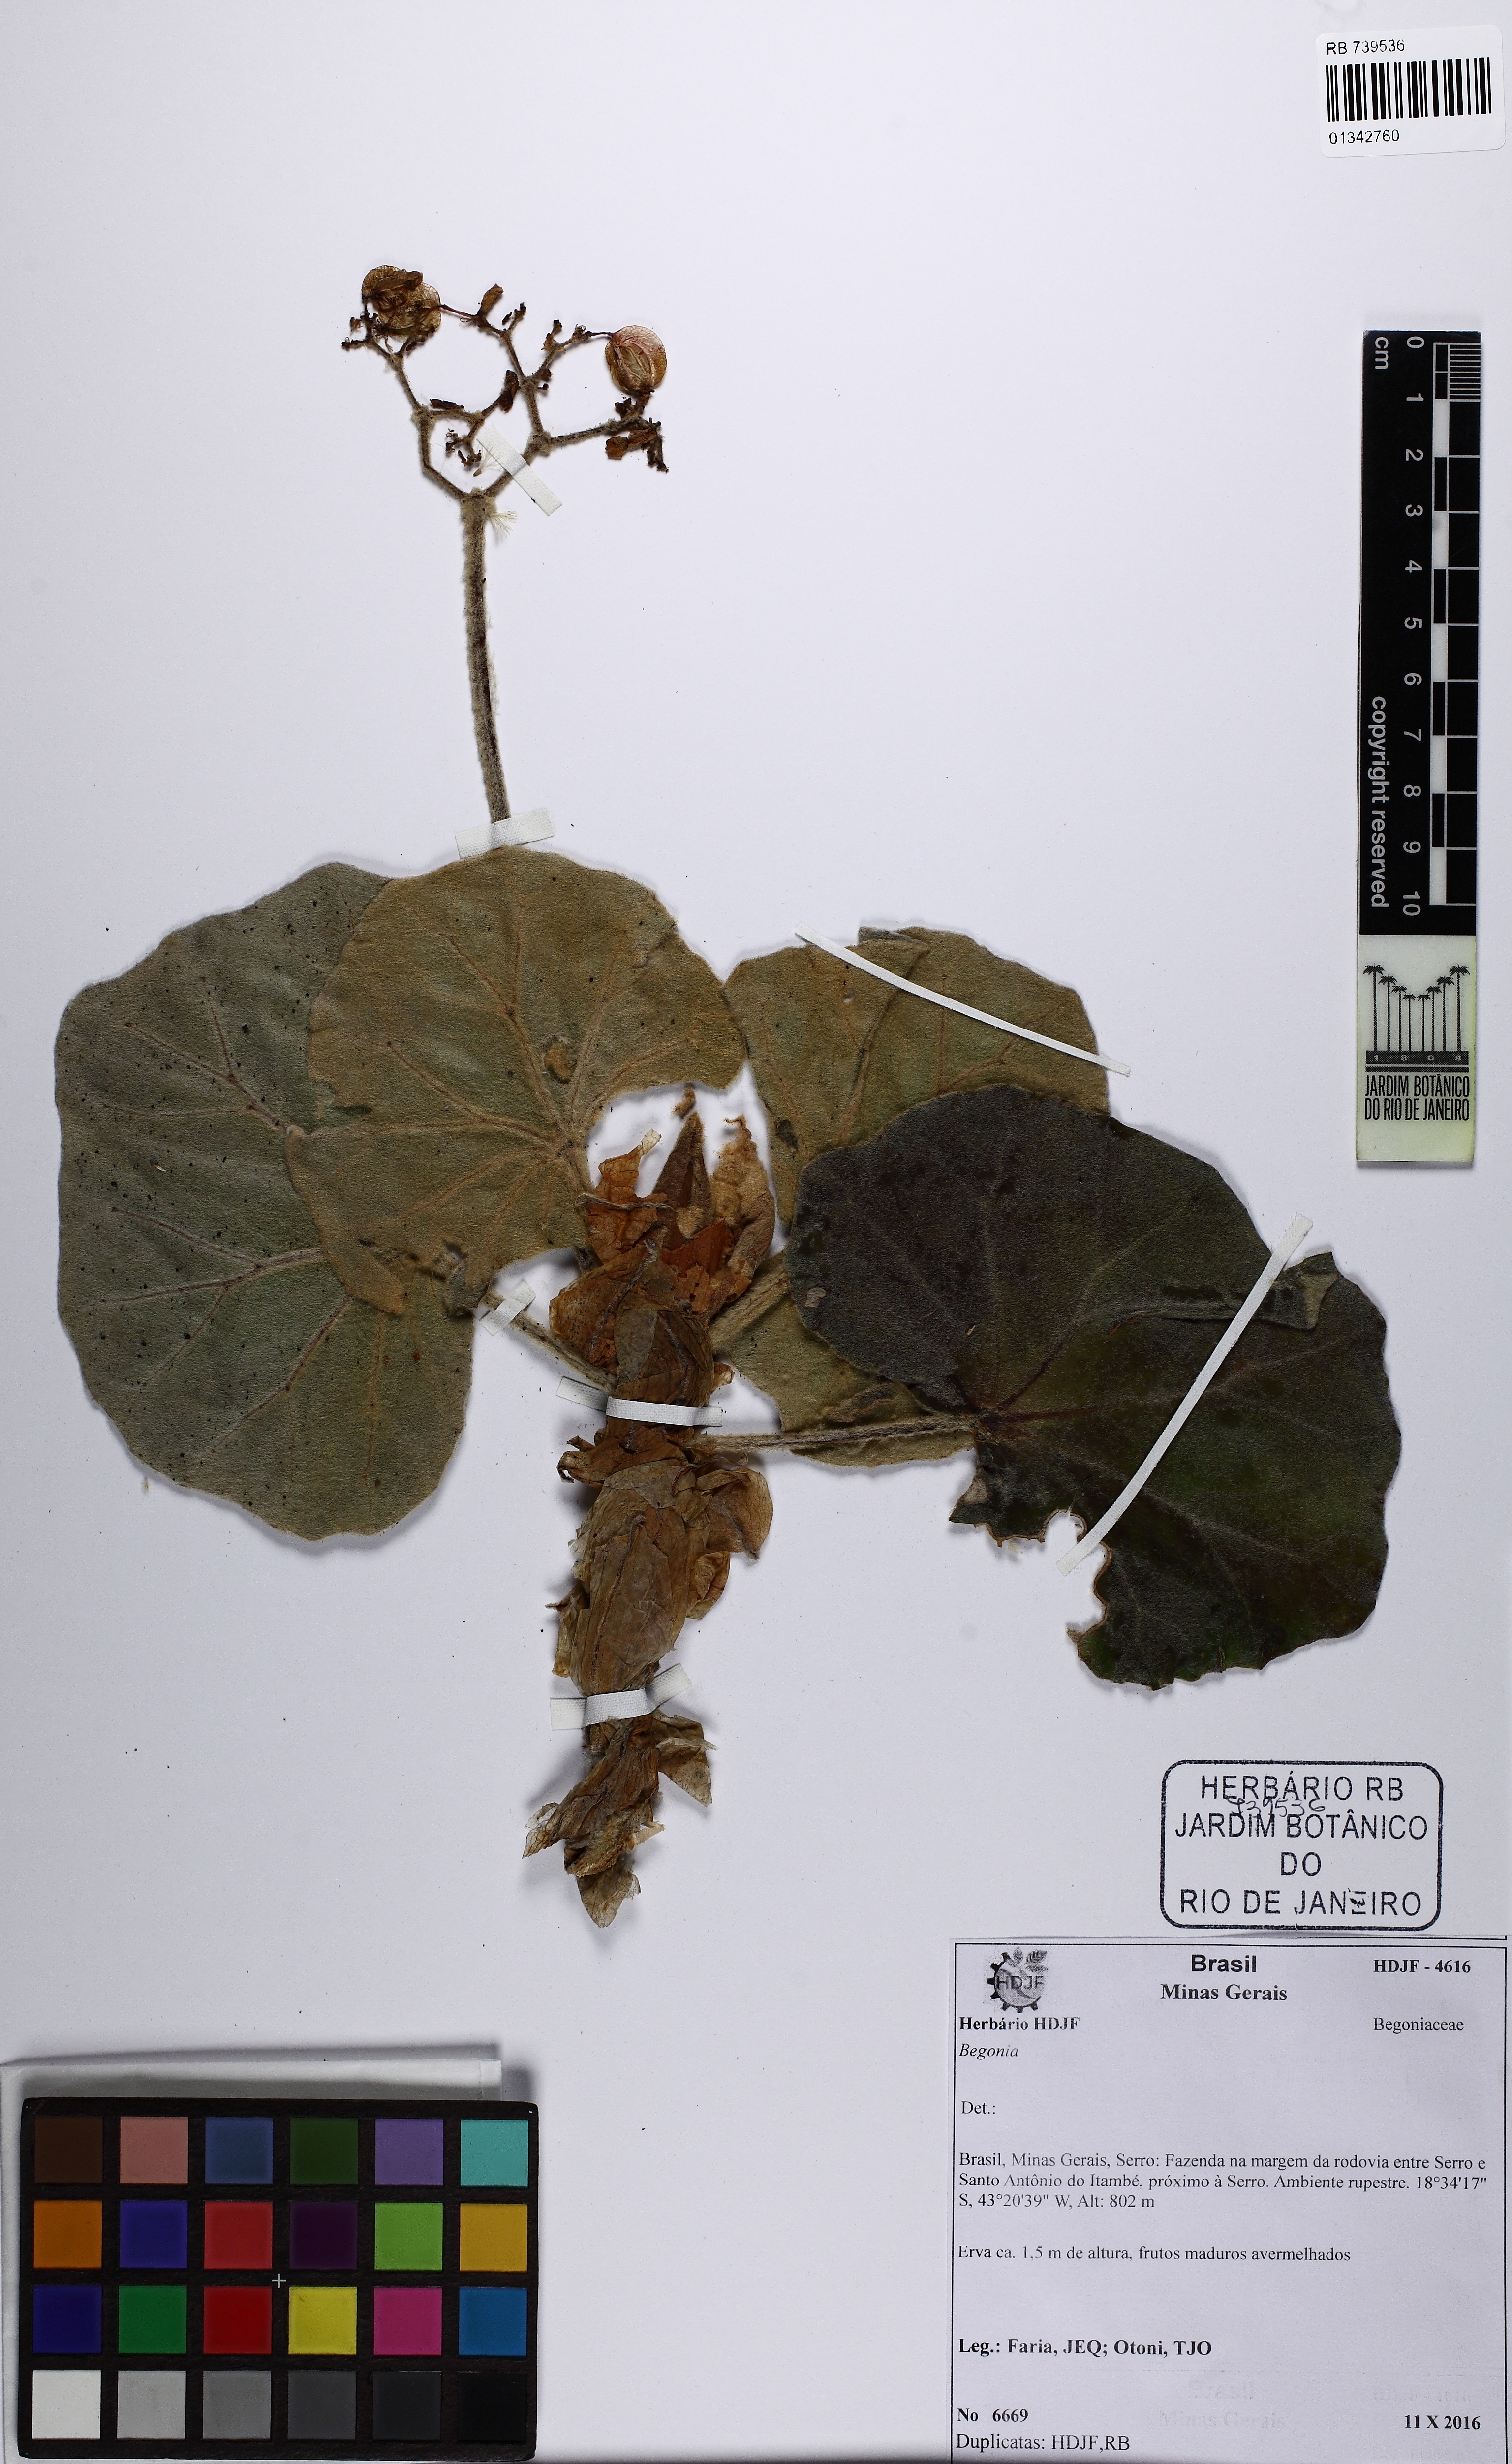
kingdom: Plantae
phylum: Tracheophyta
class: Magnoliopsida
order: Cucurbitales
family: Begoniaceae
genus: Begonia
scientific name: Begonia grisea
